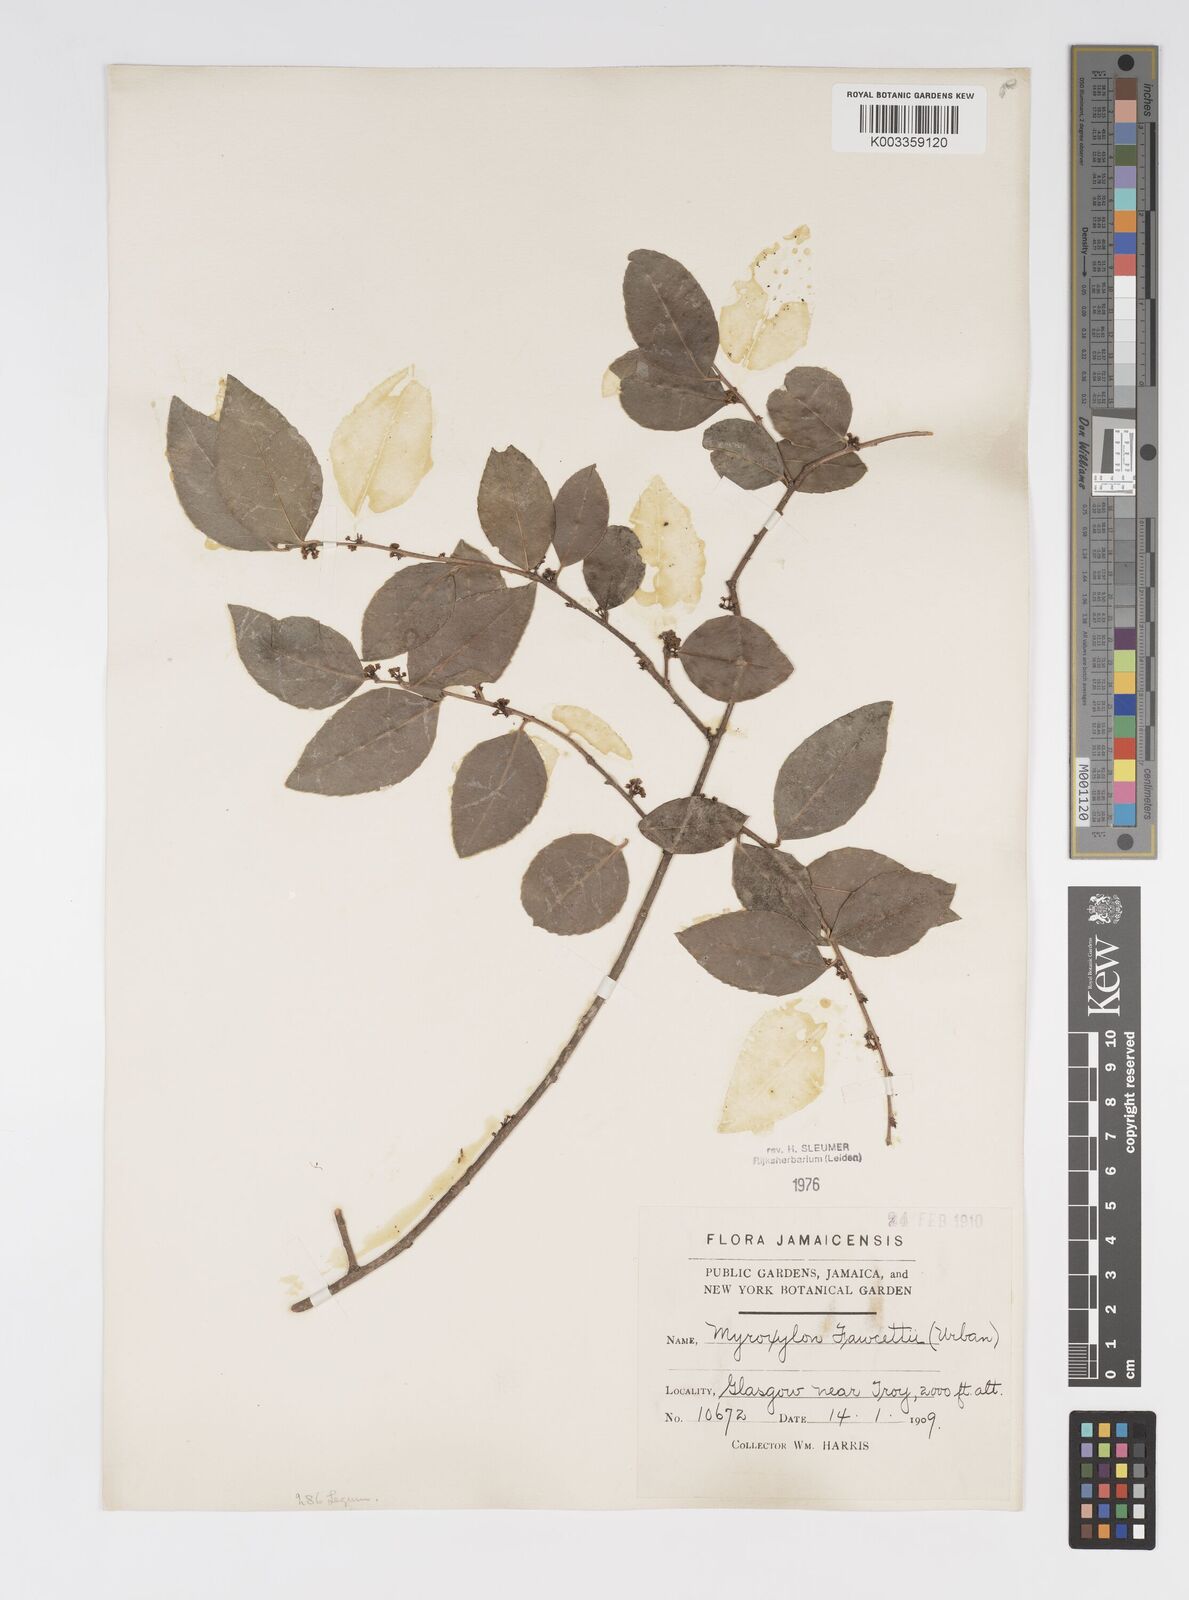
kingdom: Plantae
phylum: Tracheophyta
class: Magnoliopsida
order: Malpighiales
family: Salicaceae
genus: Xylosma
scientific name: Xylosma fawcettii
